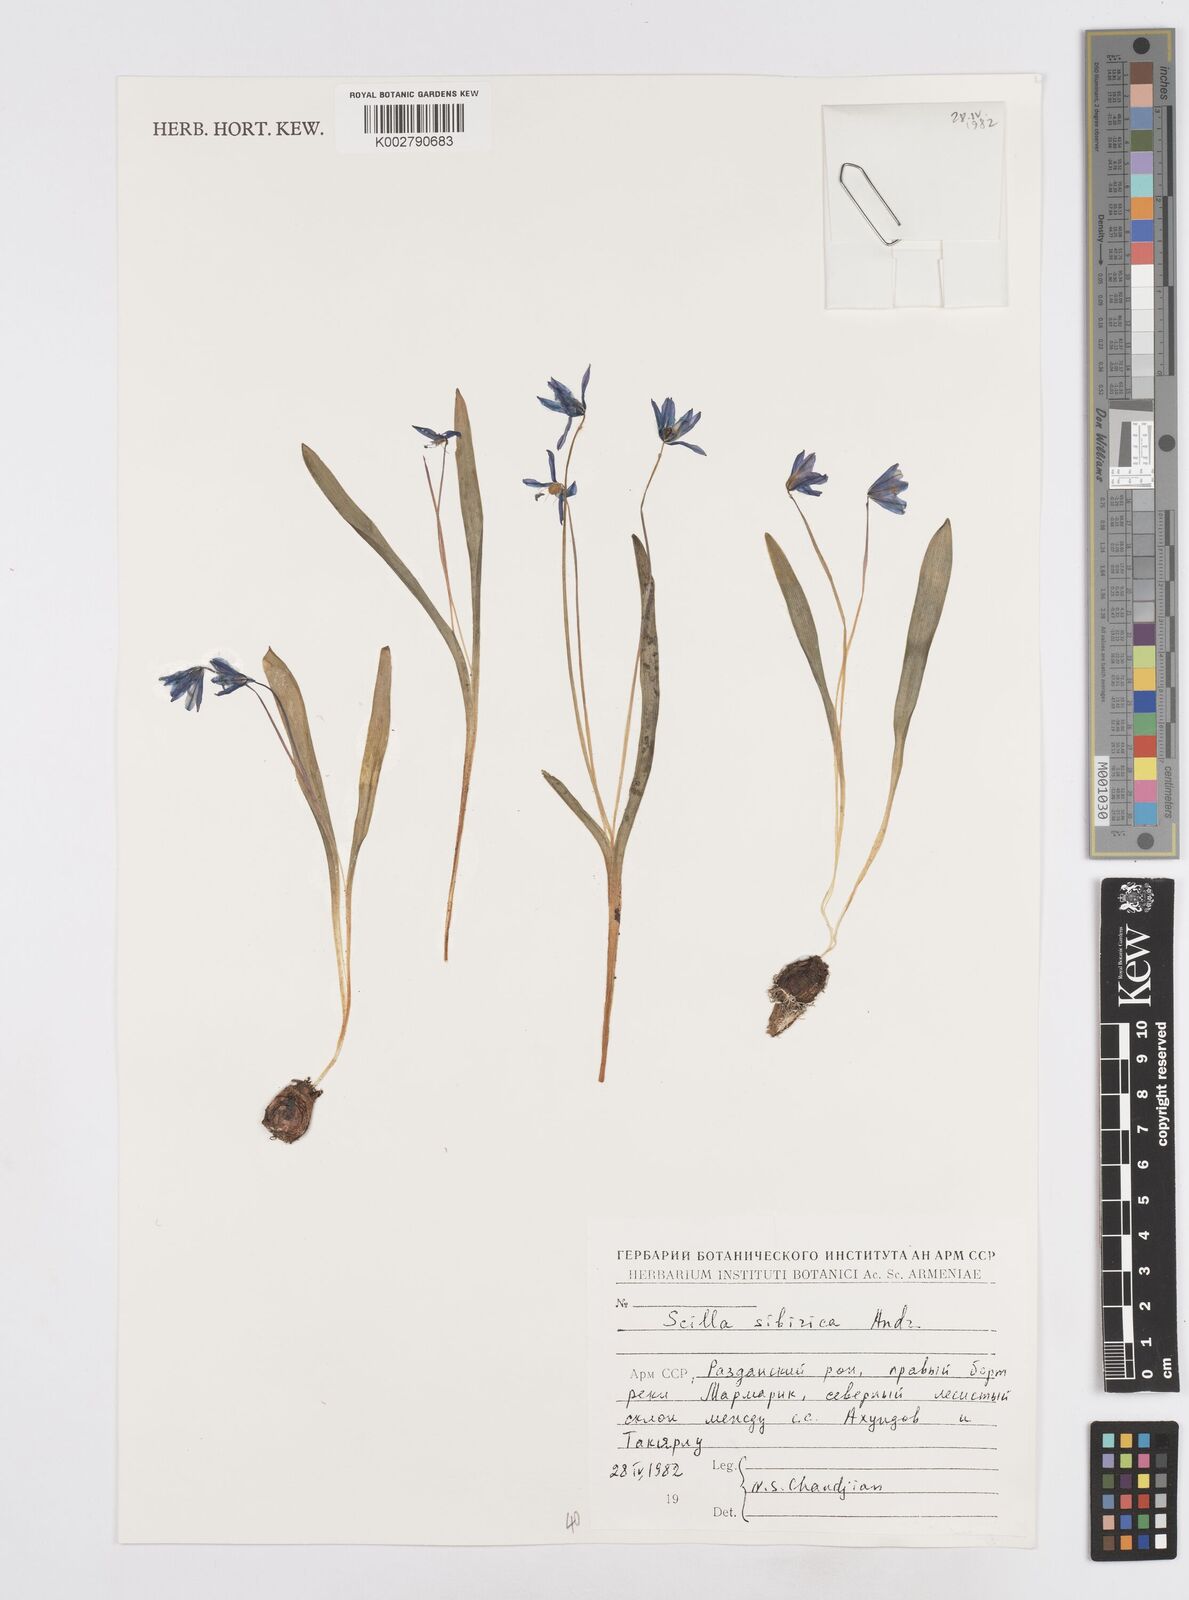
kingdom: Plantae
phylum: Tracheophyta
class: Liliopsida
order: Asparagales
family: Asparagaceae
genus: Scilla
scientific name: Scilla siberica
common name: Siberian squill
